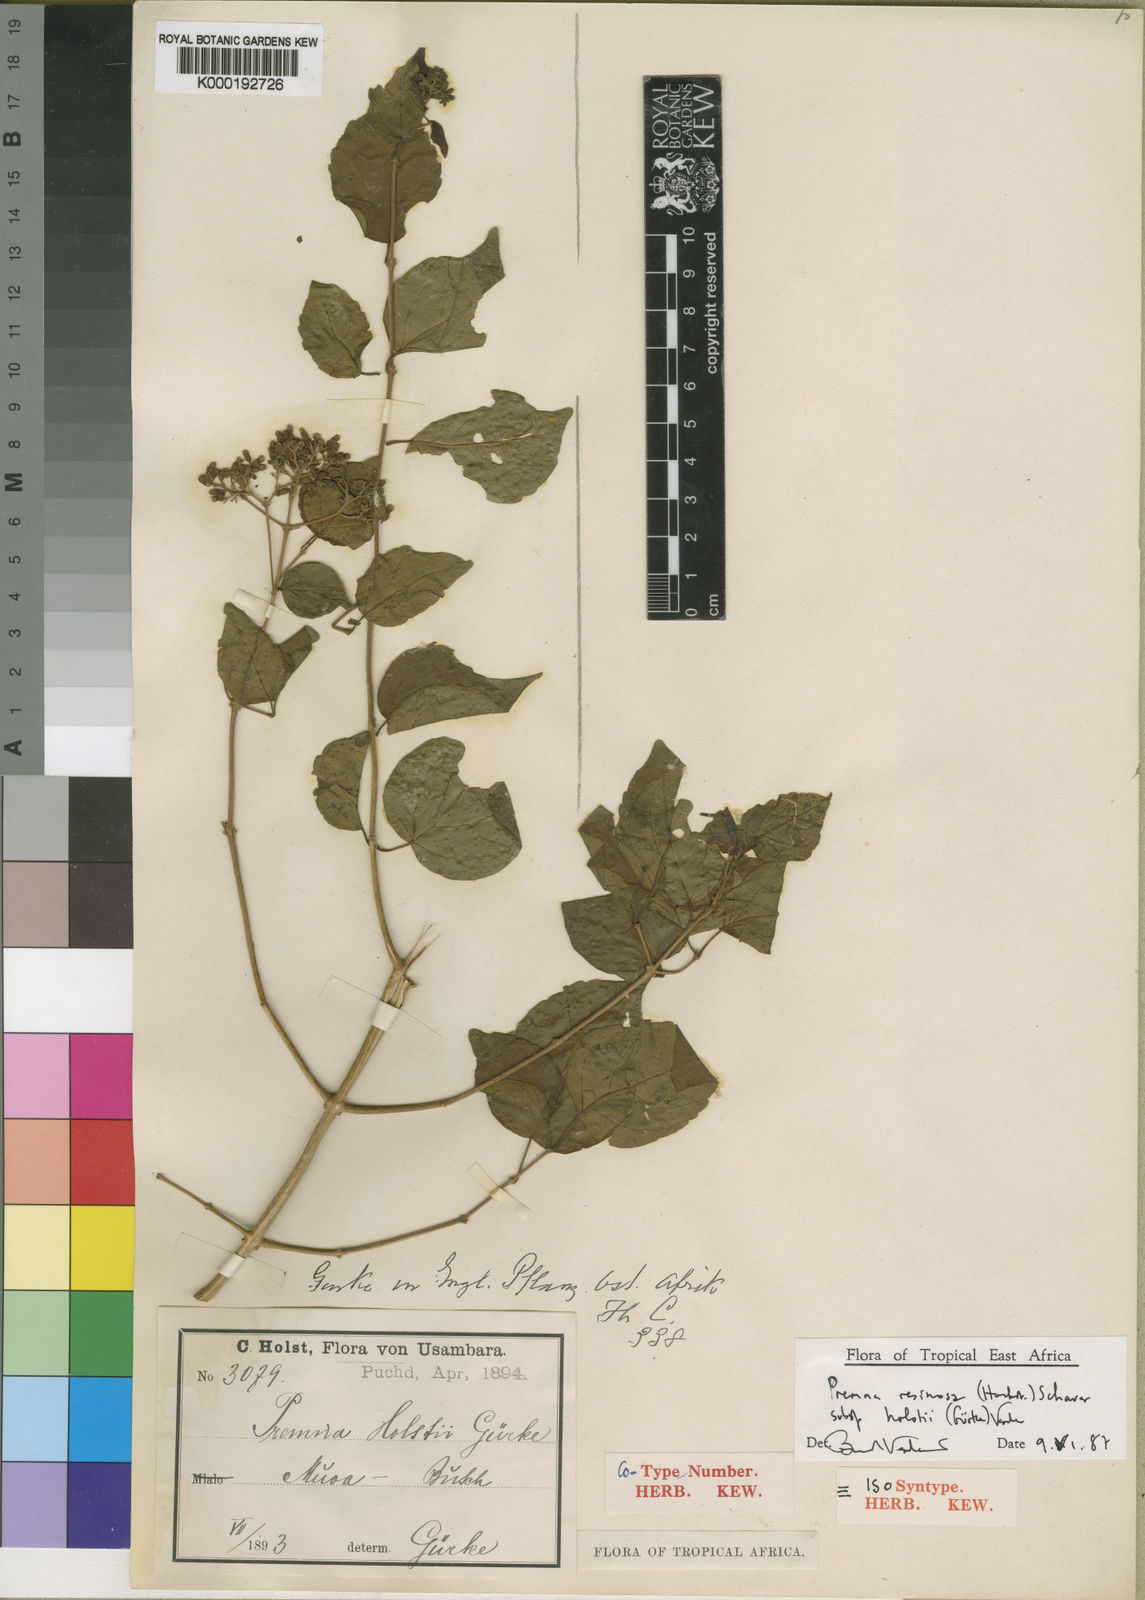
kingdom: Plantae
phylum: Tracheophyta
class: Magnoliopsida
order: Lamiales
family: Lamiaceae
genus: Premna
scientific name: Premna resinosa
